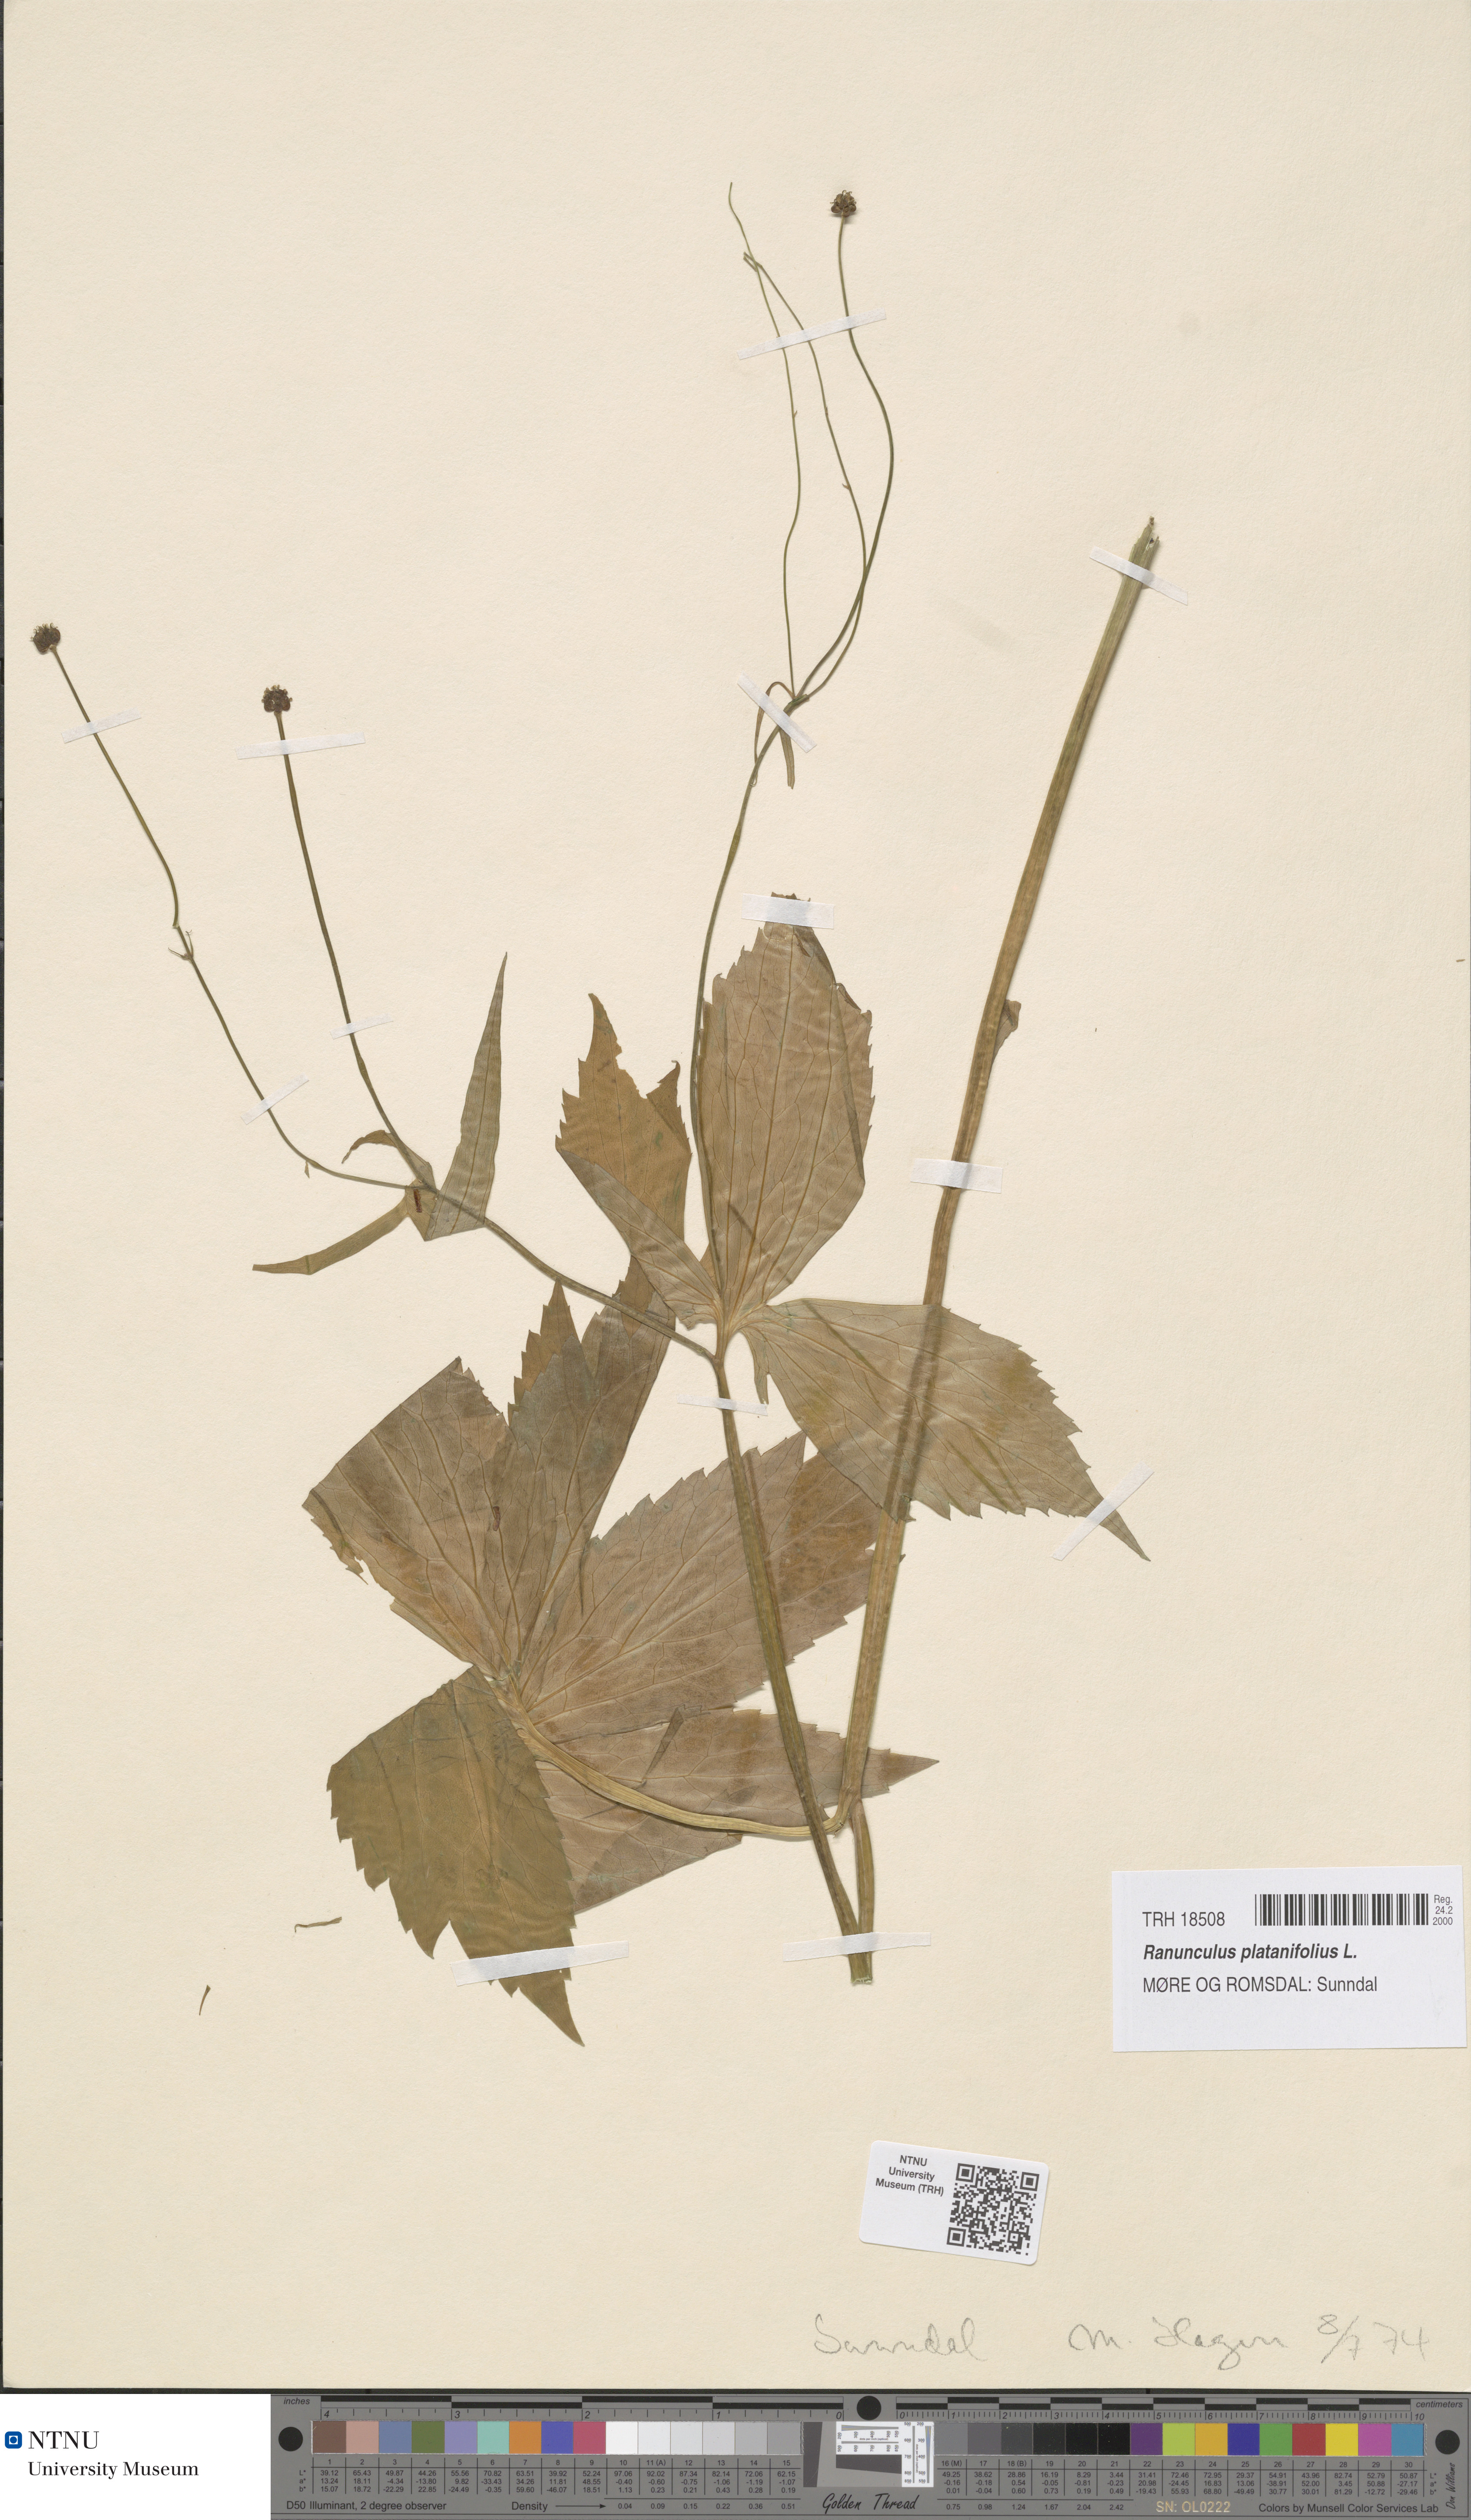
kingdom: Plantae
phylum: Tracheophyta
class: Magnoliopsida
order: Ranunculales
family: Ranunculaceae
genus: Ranunculus
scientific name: Ranunculus platanifolius
